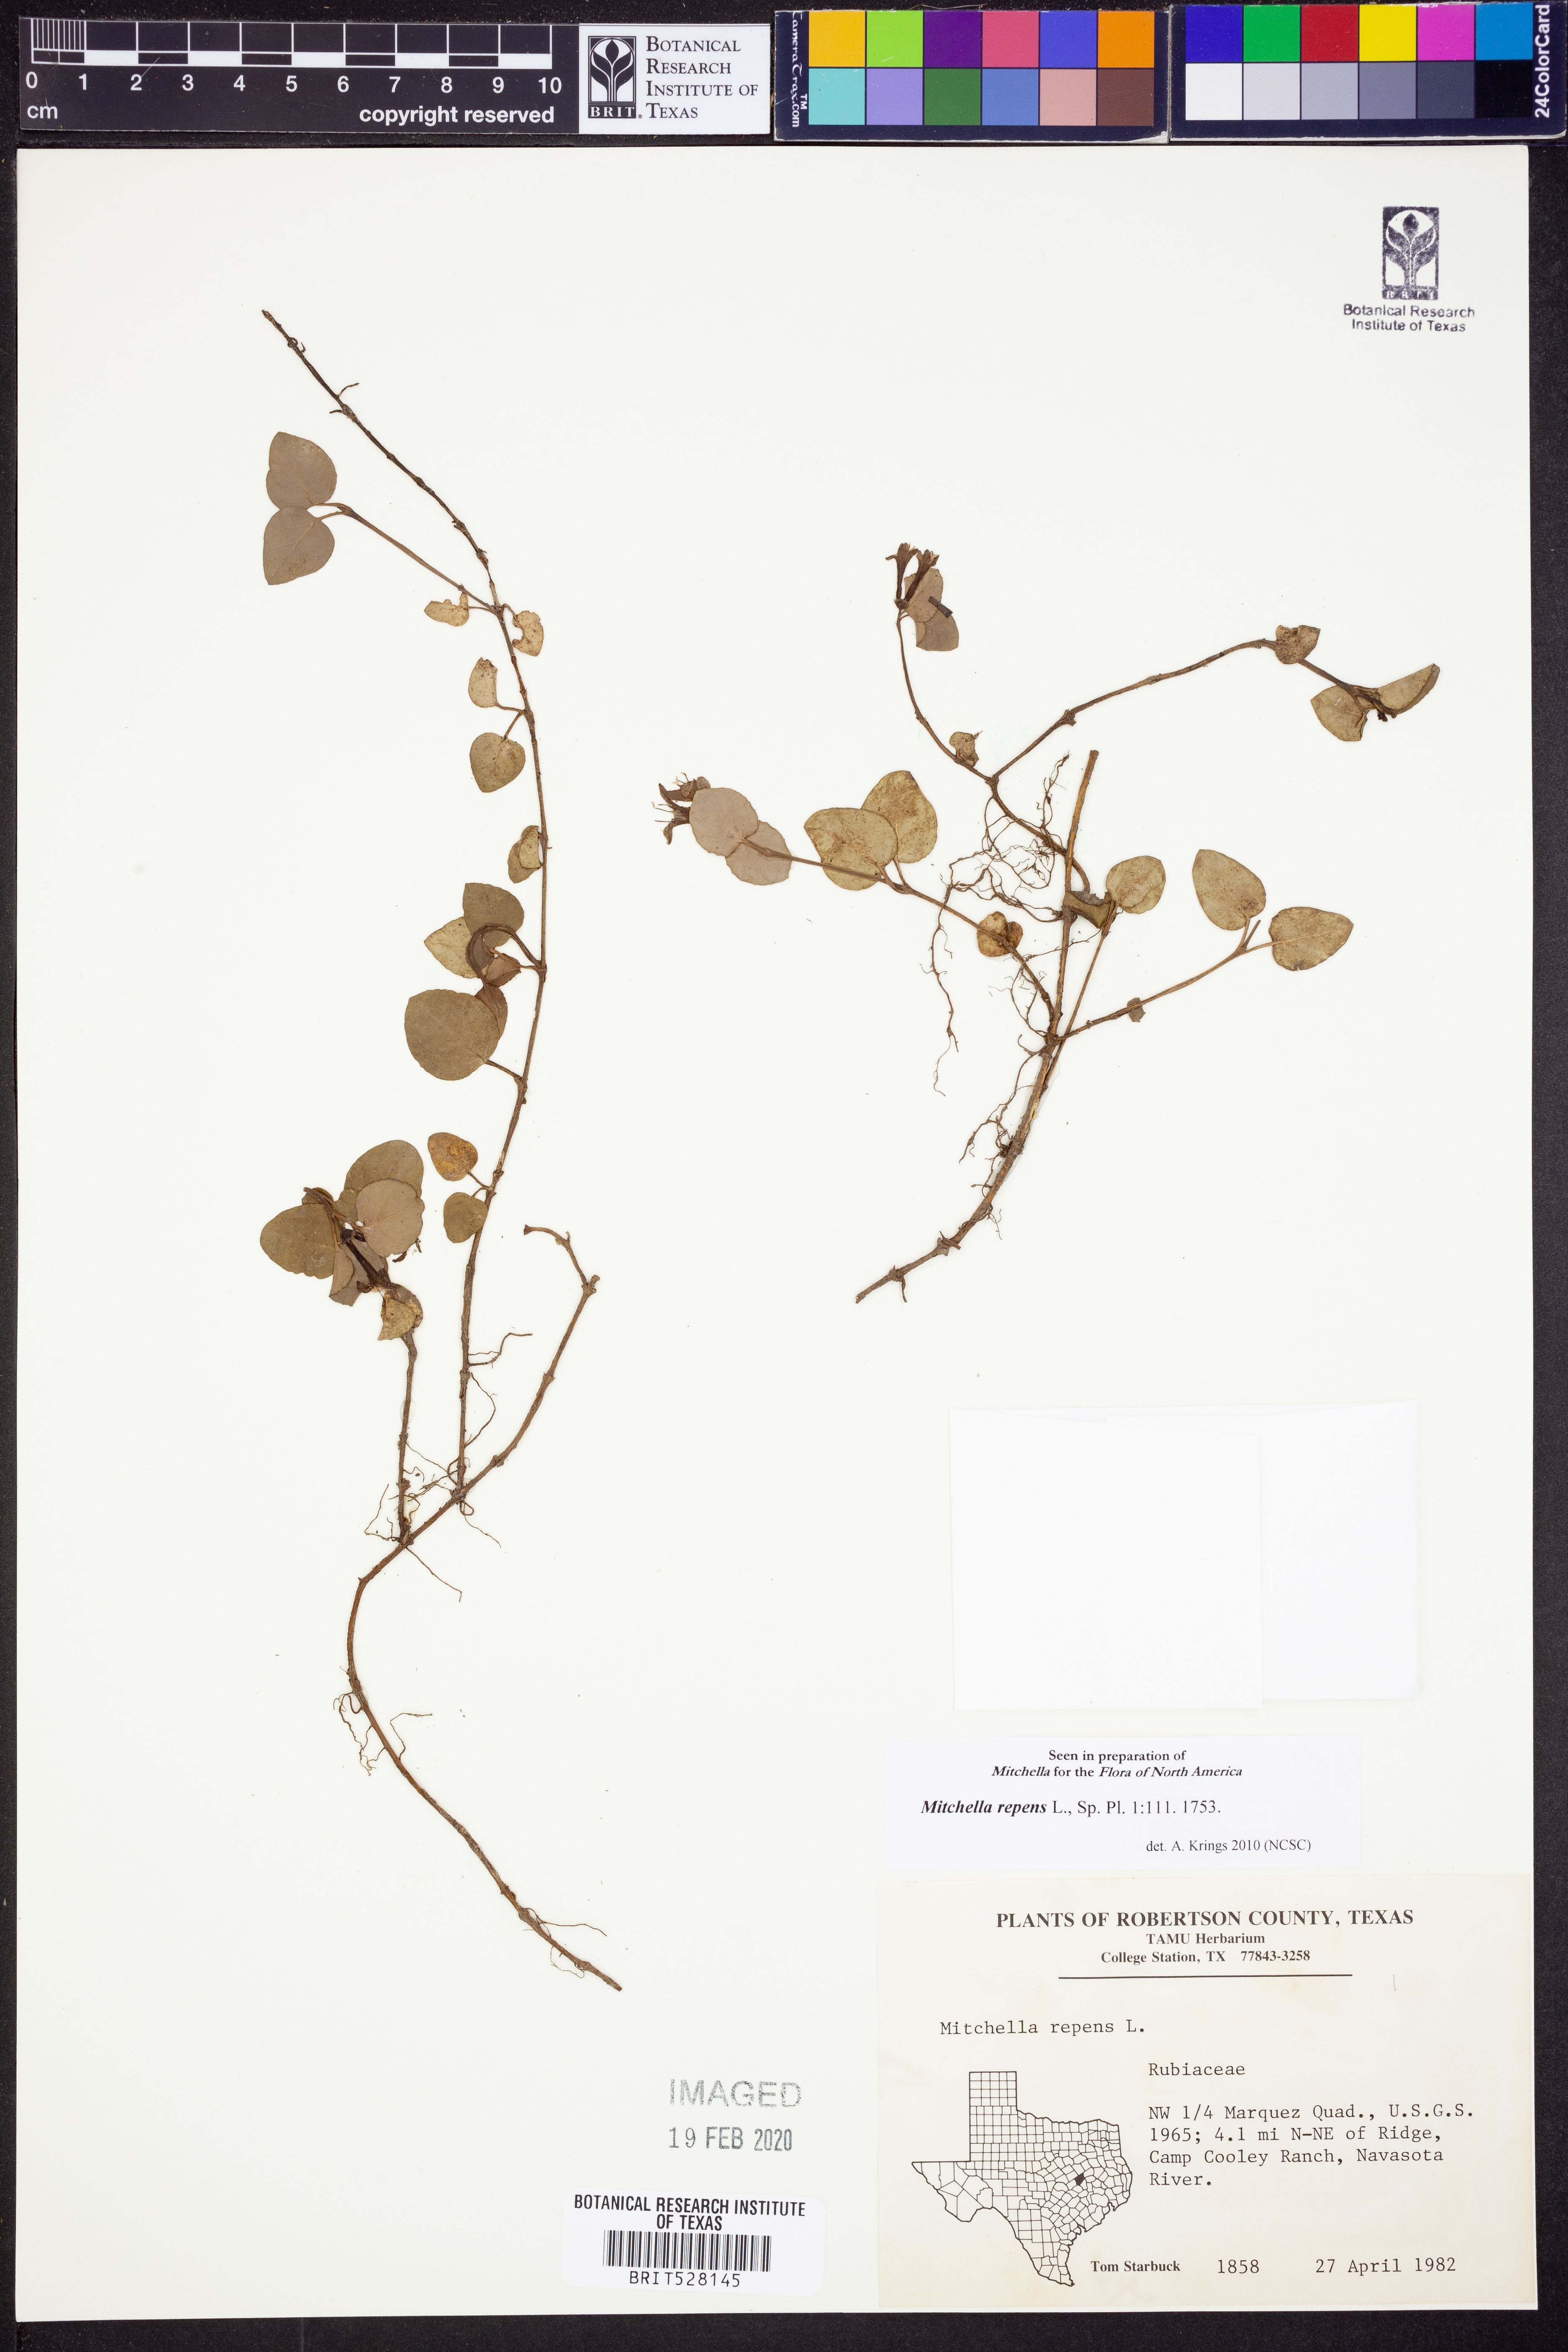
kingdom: Plantae
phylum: Tracheophyta
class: Magnoliopsida
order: Gentianales
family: Rubiaceae
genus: Mitchella
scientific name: Mitchella repens
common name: Partridge-berry
